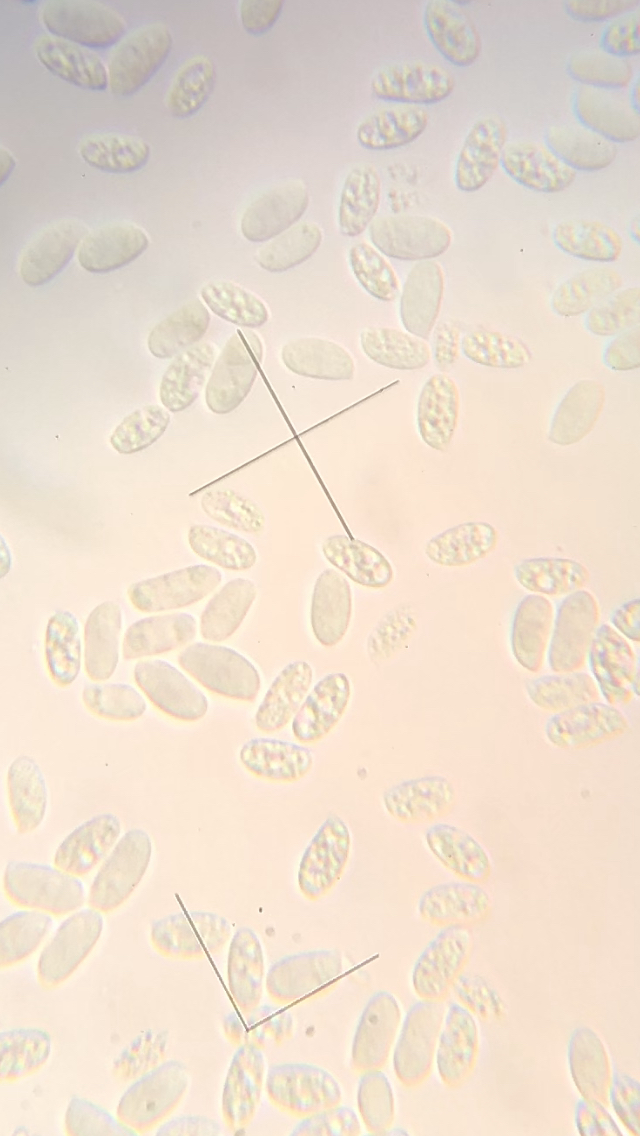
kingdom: Fungi
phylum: Basidiomycota
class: Agaricomycetes
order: Agaricales
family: Physalacriaceae
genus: Flammulina
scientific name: Flammulina velutipes
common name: gul fløjlsfod
